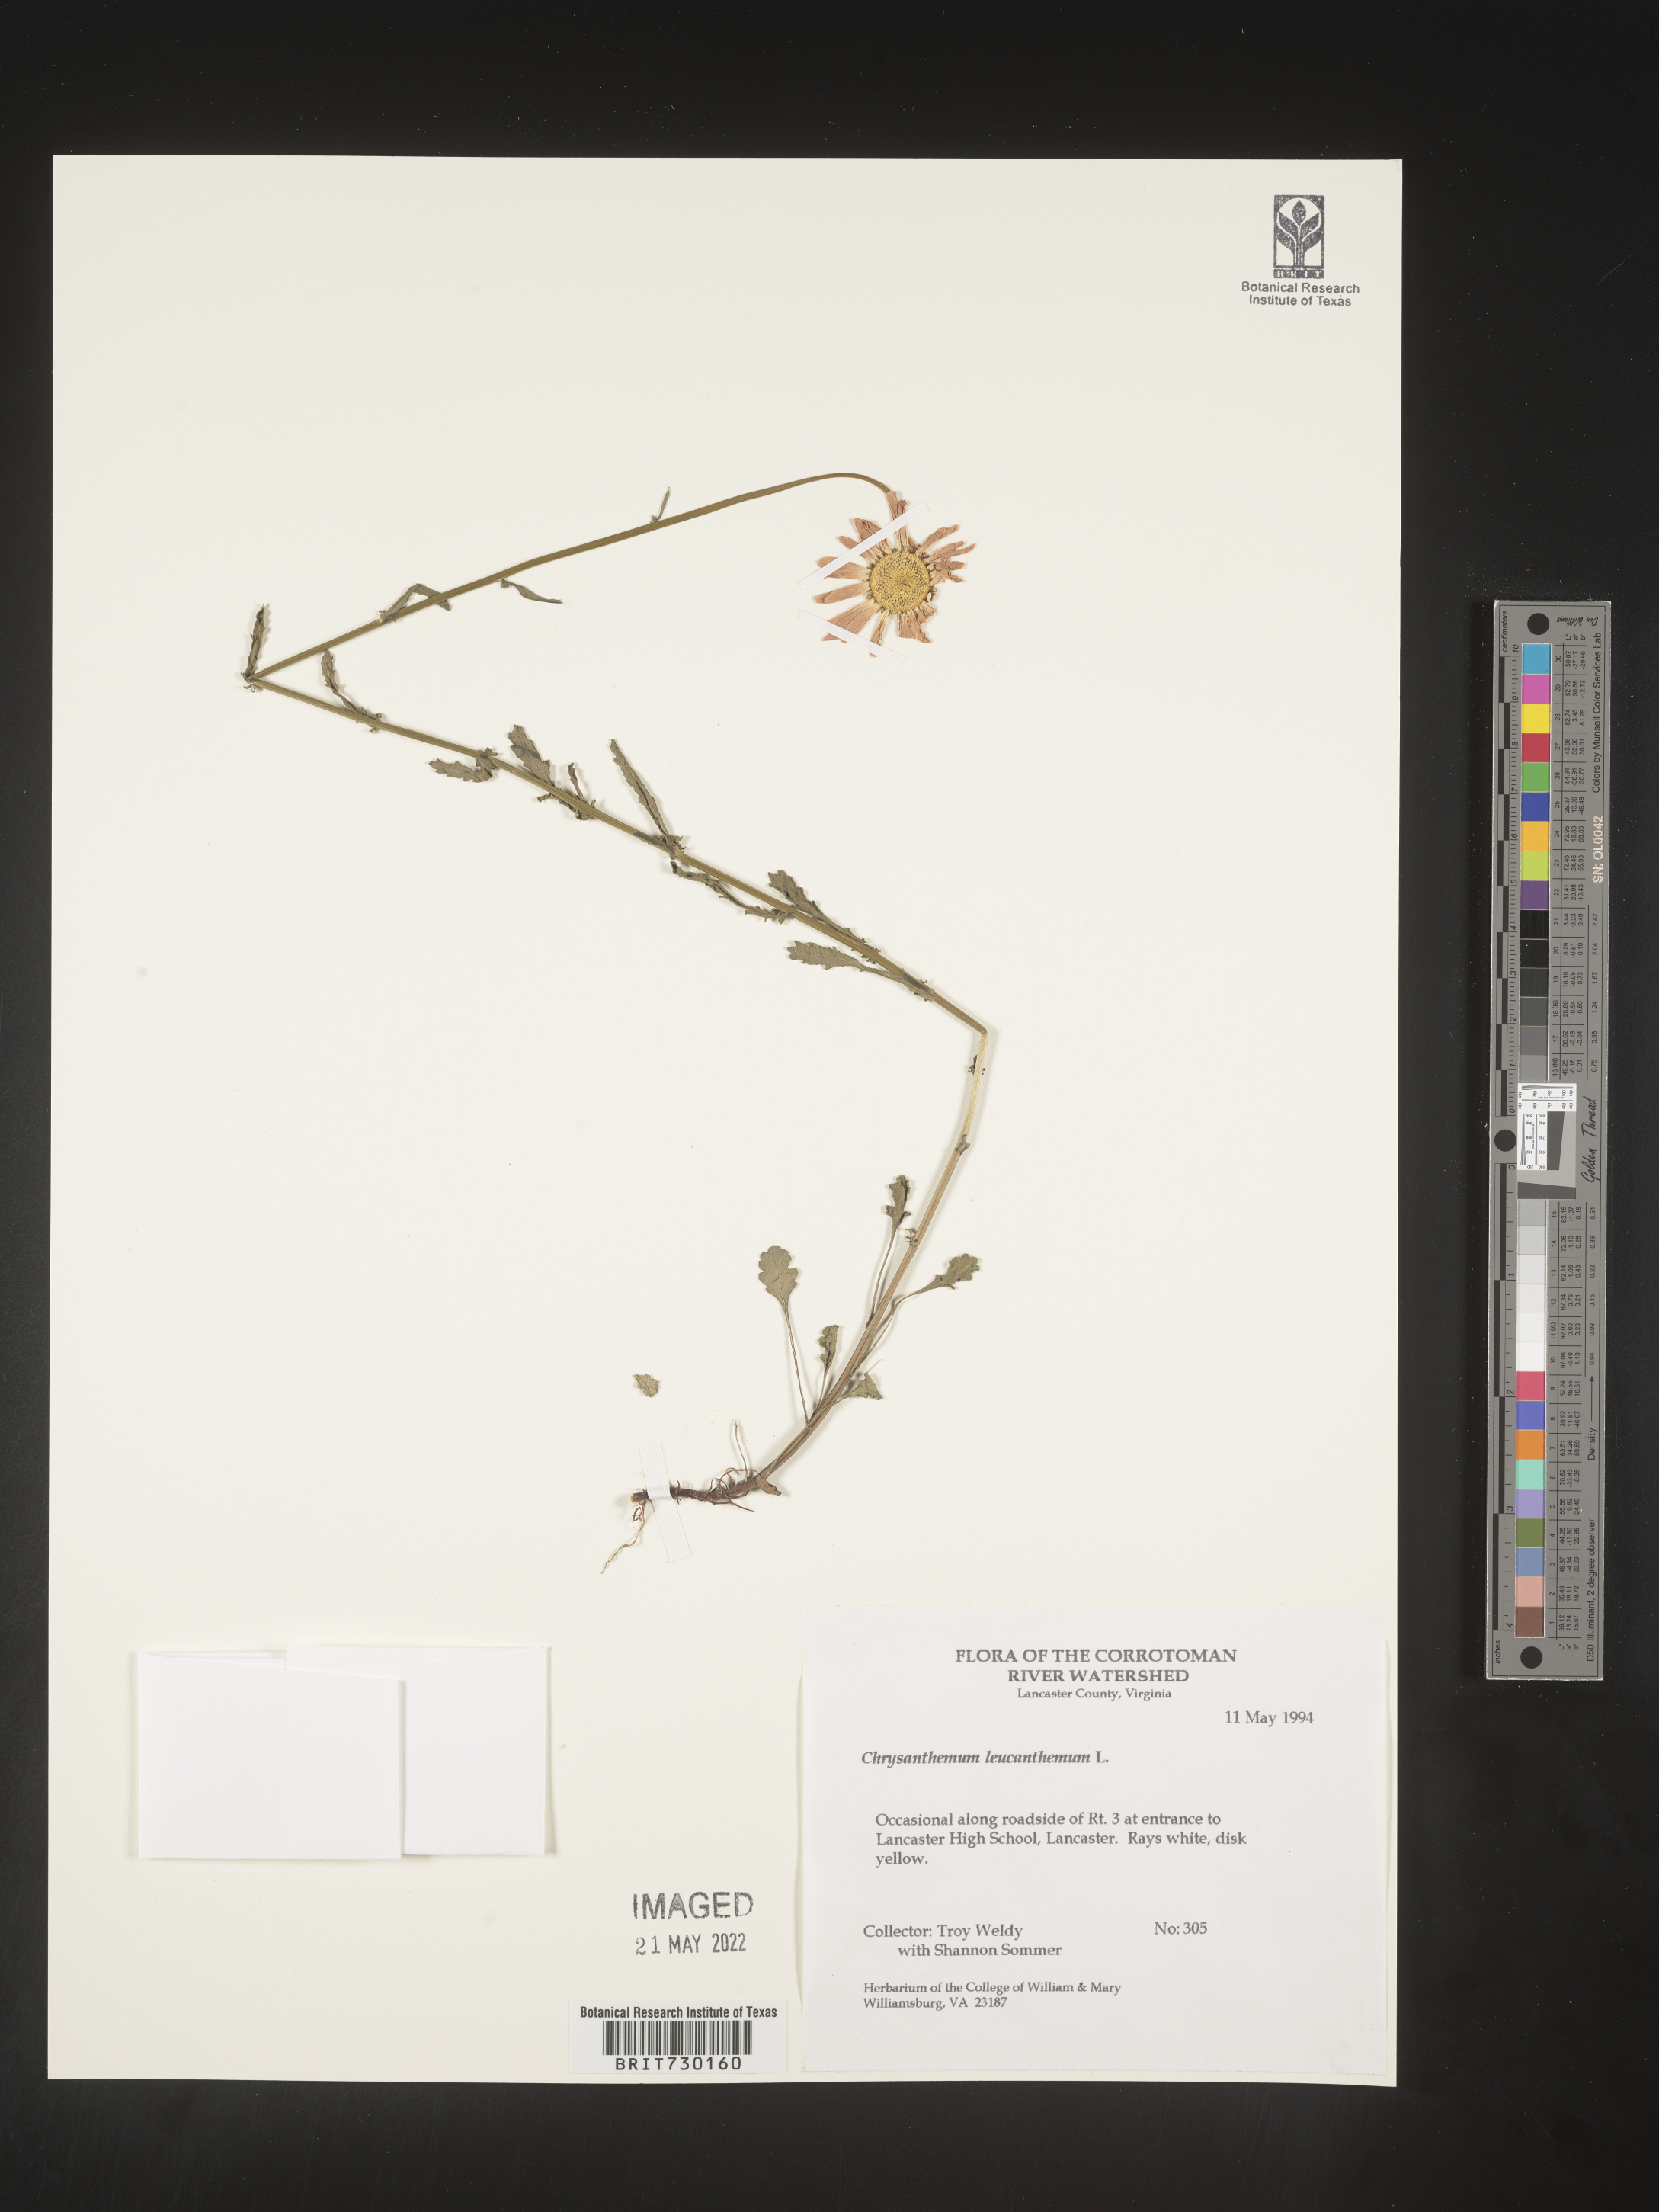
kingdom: Plantae
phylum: Tracheophyta
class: Magnoliopsida
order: Asterales
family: Asteraceae
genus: Leucanthemum
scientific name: Leucanthemum vulgare
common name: Oxeye daisy
